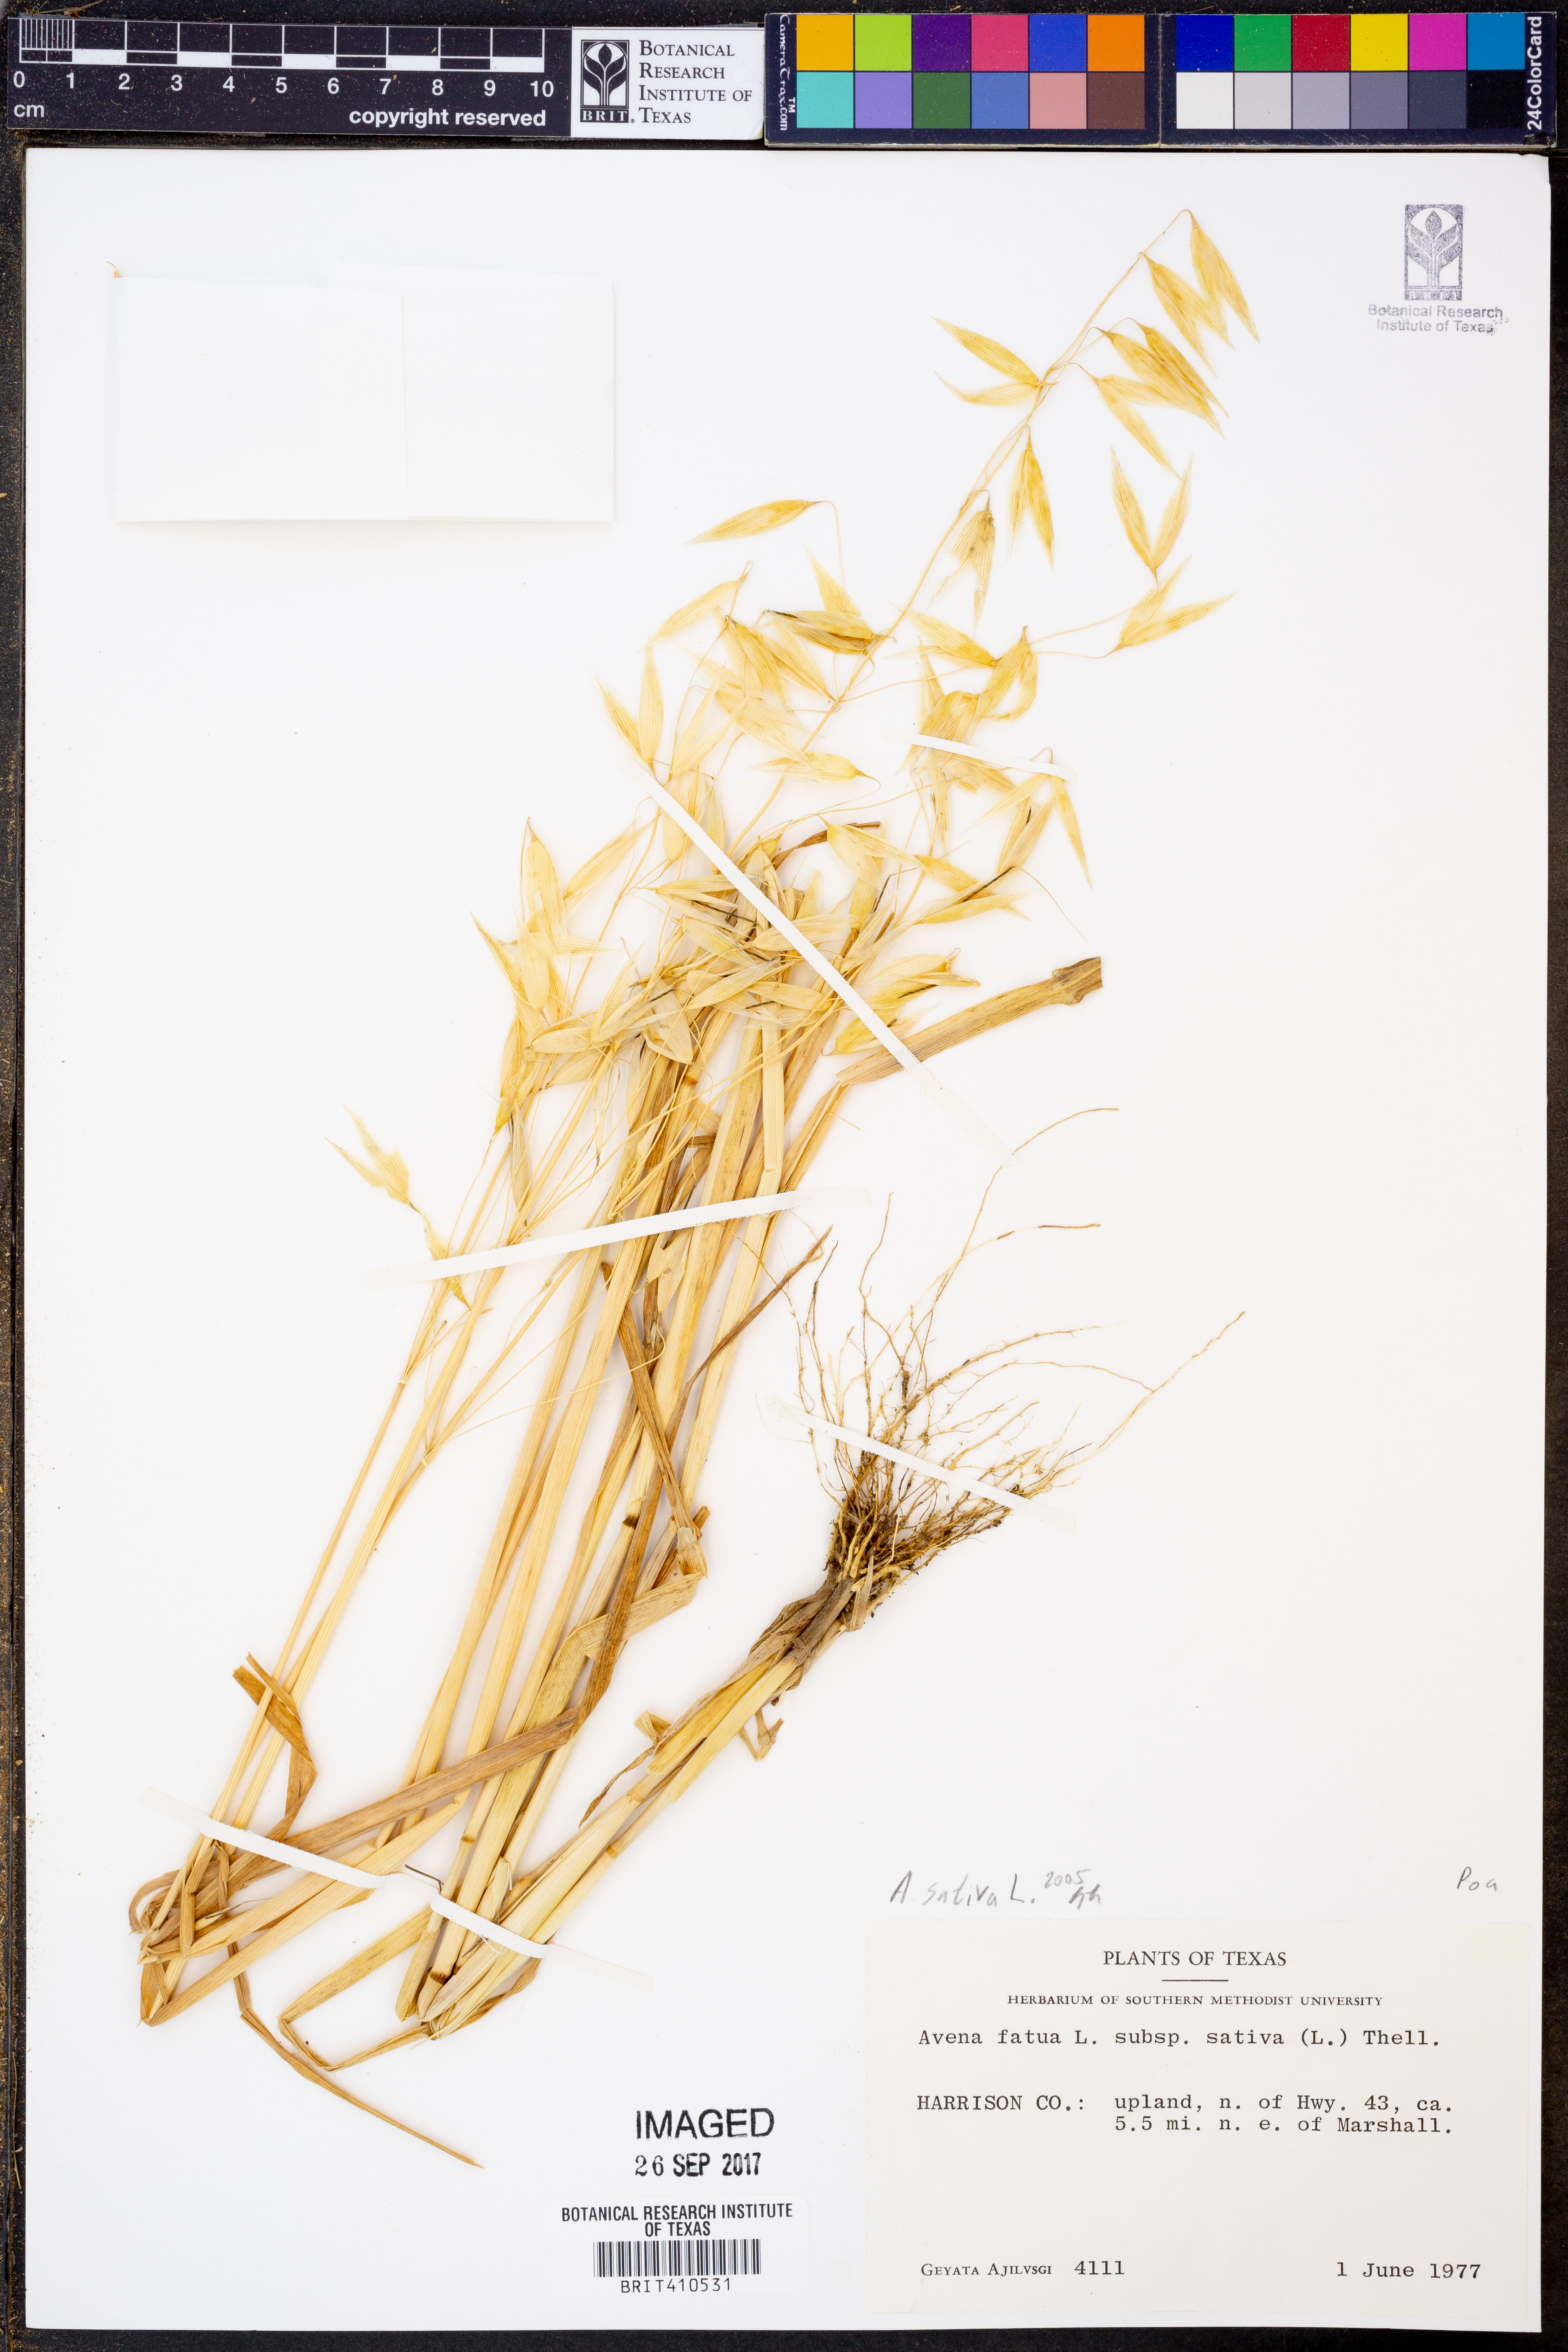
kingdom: Plantae
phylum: Tracheophyta
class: Liliopsida
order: Poales
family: Poaceae
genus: Avena
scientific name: Avena sativa
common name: Oat
